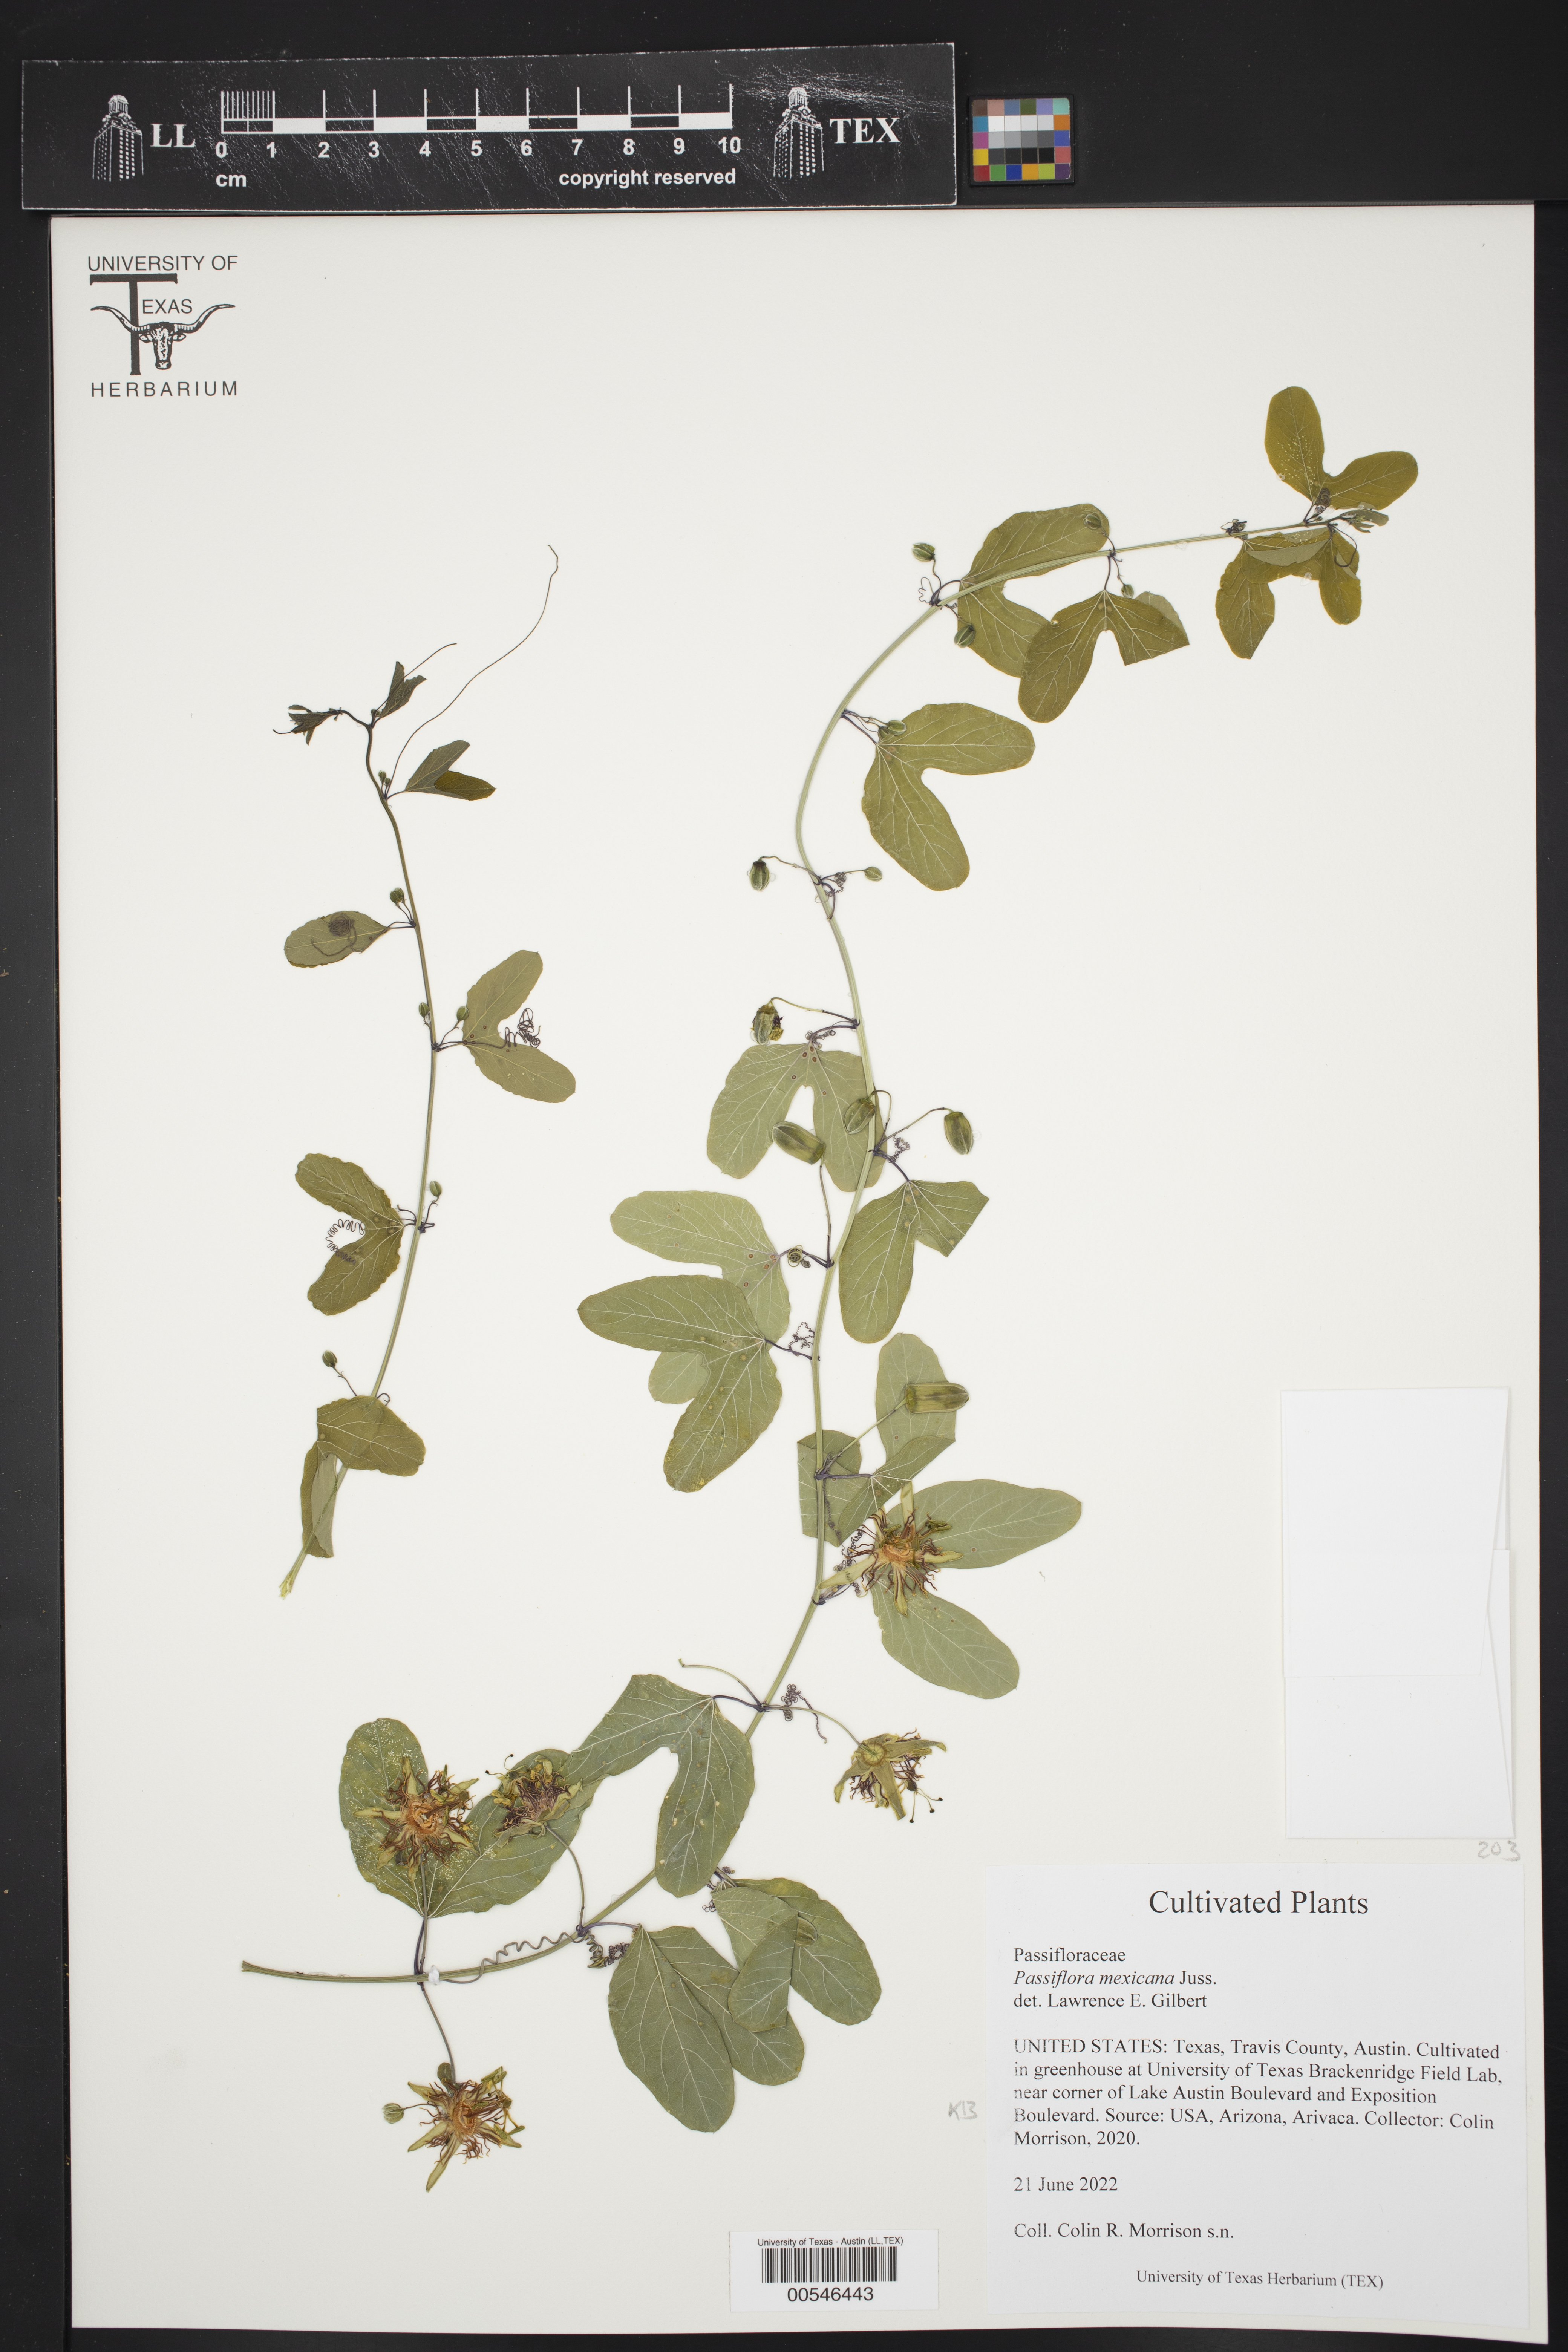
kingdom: Plantae
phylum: Tracheophyta
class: Magnoliopsida
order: Malpighiales
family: Passifloraceae
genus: Passiflora
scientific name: Passiflora mexicana
